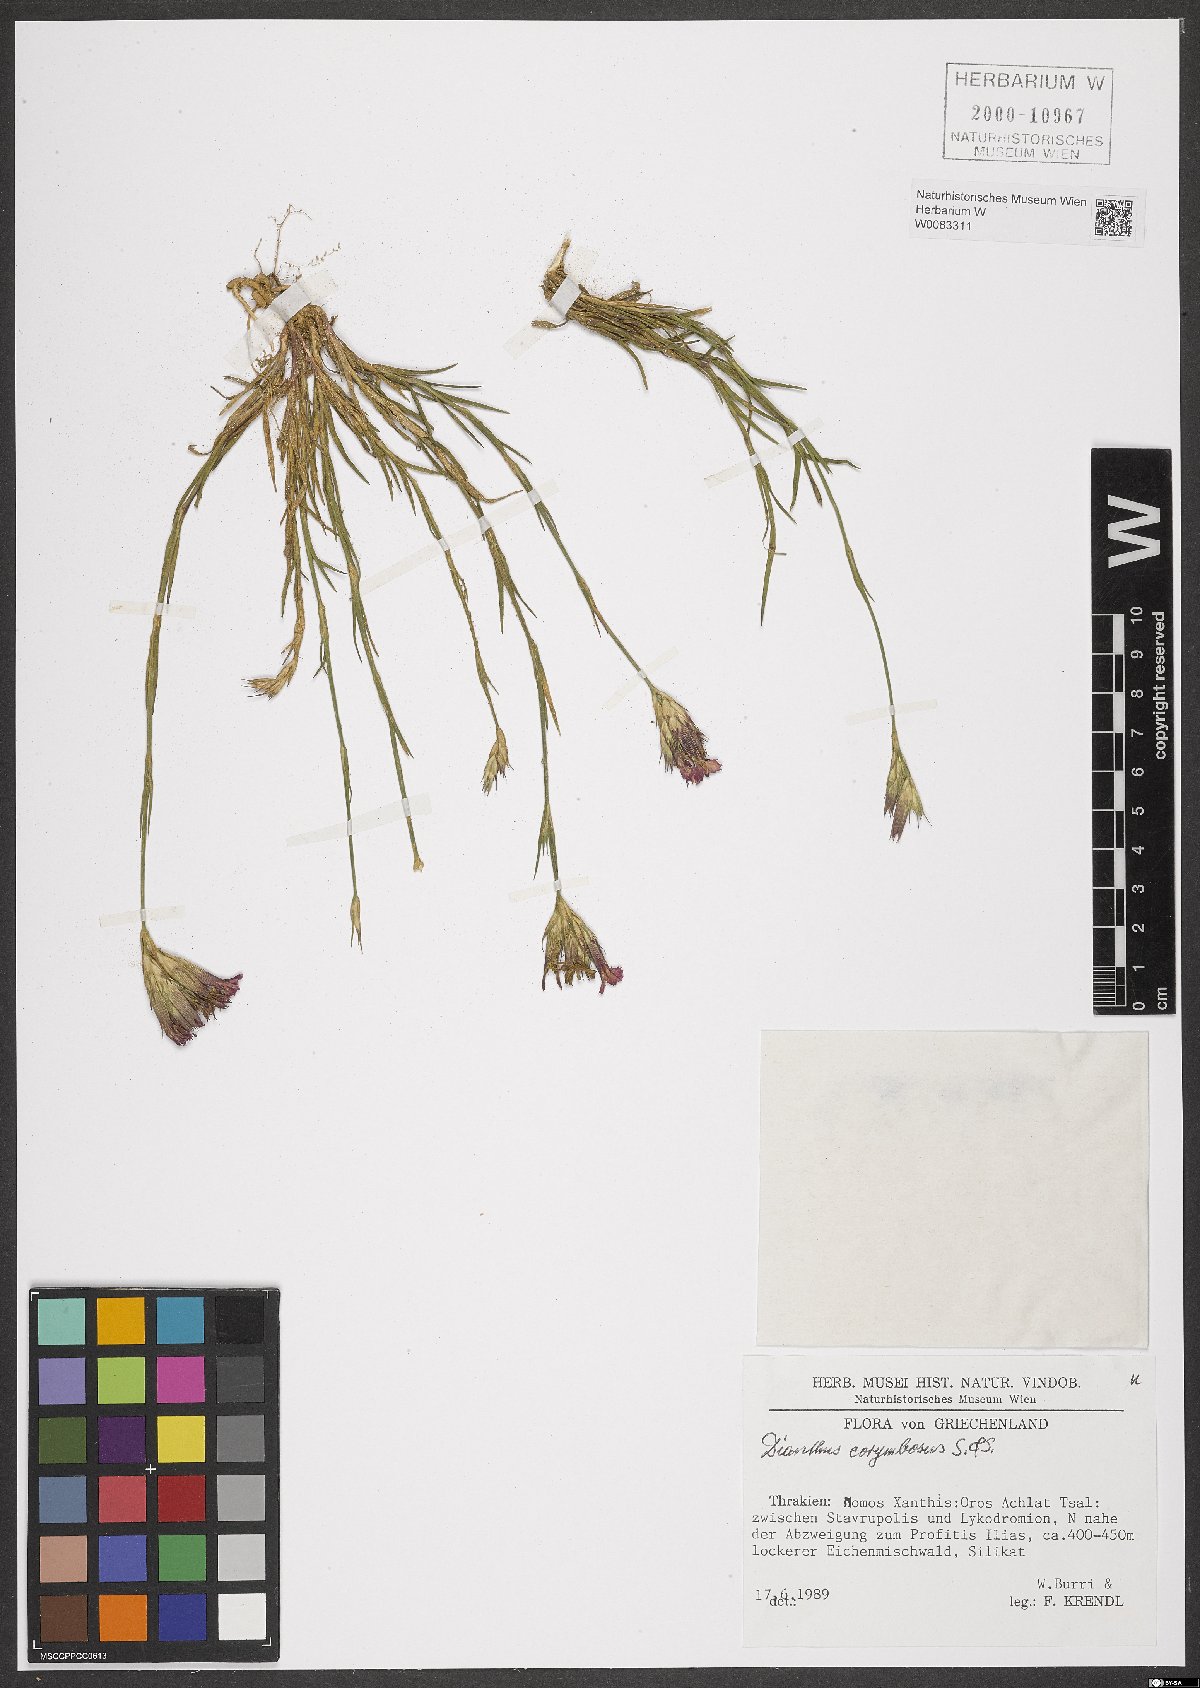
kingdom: Plantae
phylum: Tracheophyta
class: Magnoliopsida
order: Caryophyllales
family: Caryophyllaceae
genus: Dianthus
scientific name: Dianthus corymbosus
